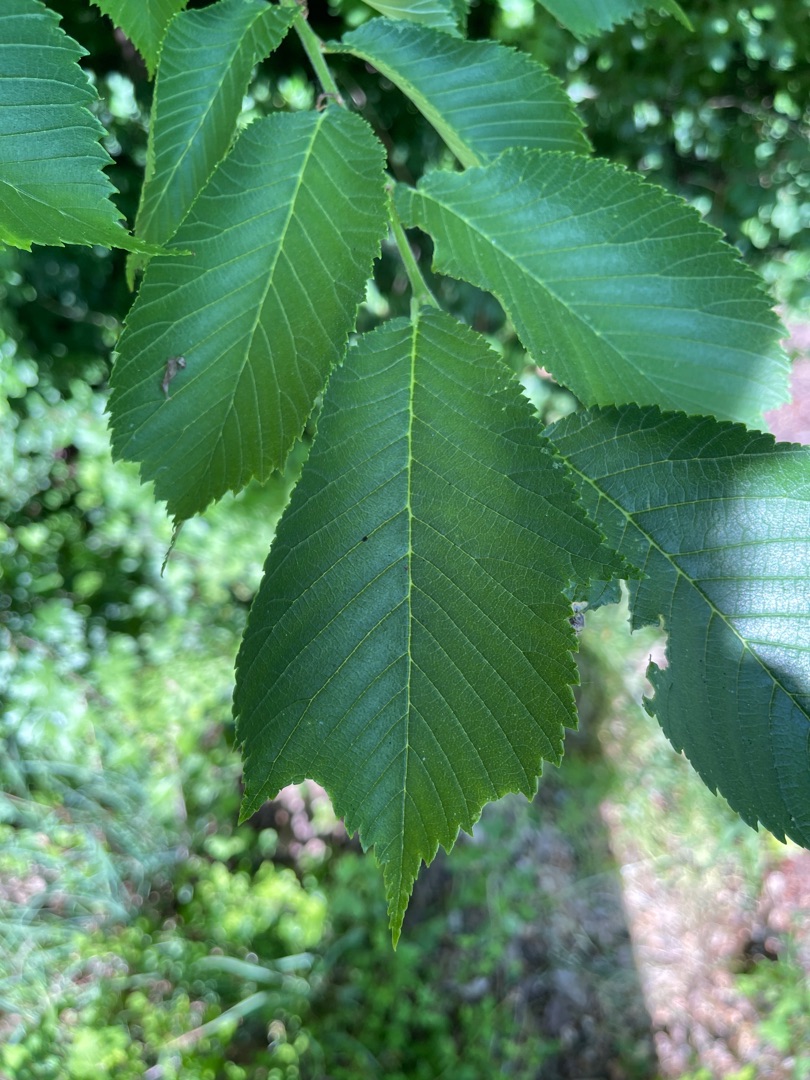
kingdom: Plantae
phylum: Tracheophyta
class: Magnoliopsida
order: Rosales
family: Ulmaceae
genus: Ulmus
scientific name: Ulmus glabra
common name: Skov-elm/storbladet elm
